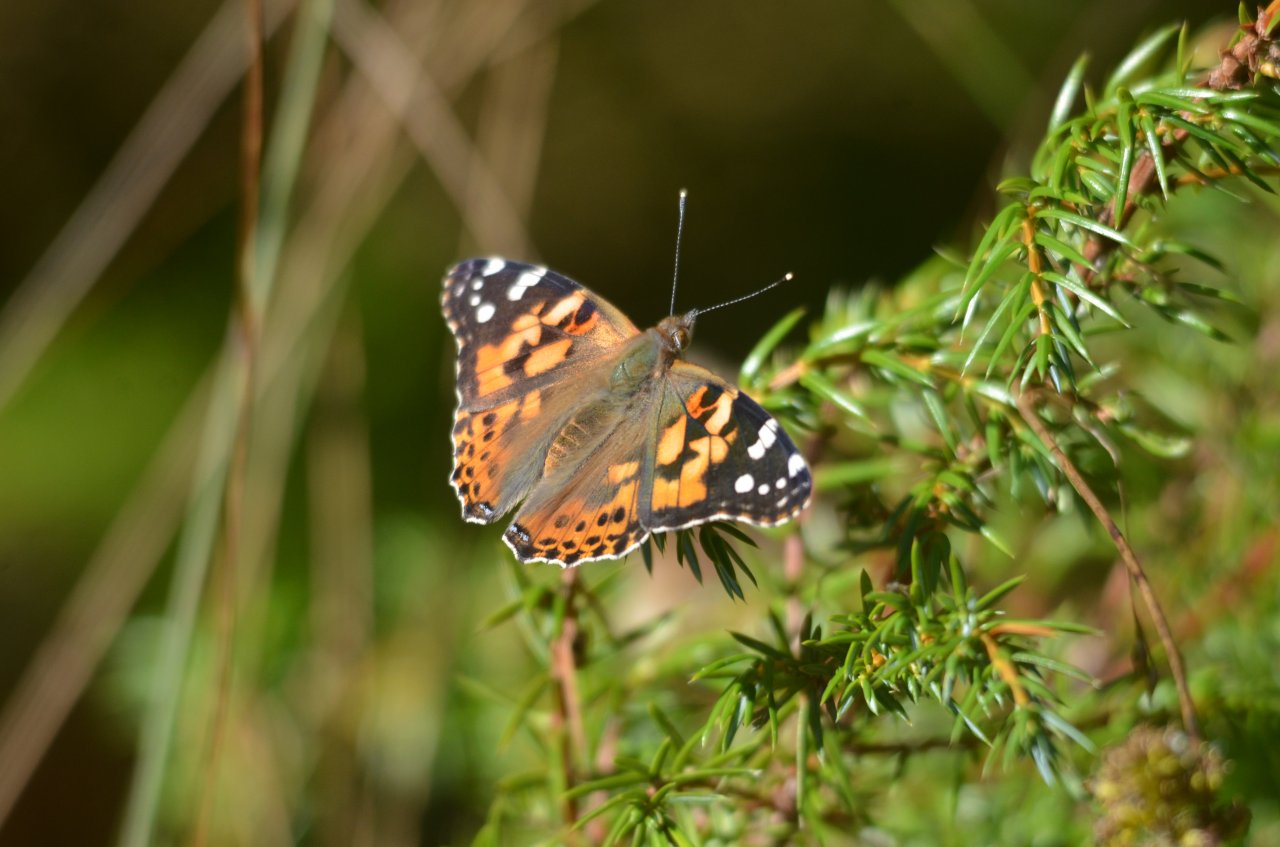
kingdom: Animalia
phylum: Arthropoda
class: Insecta
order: Lepidoptera
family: Nymphalidae
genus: Vanessa
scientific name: Vanessa cardui
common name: Painted Lady
